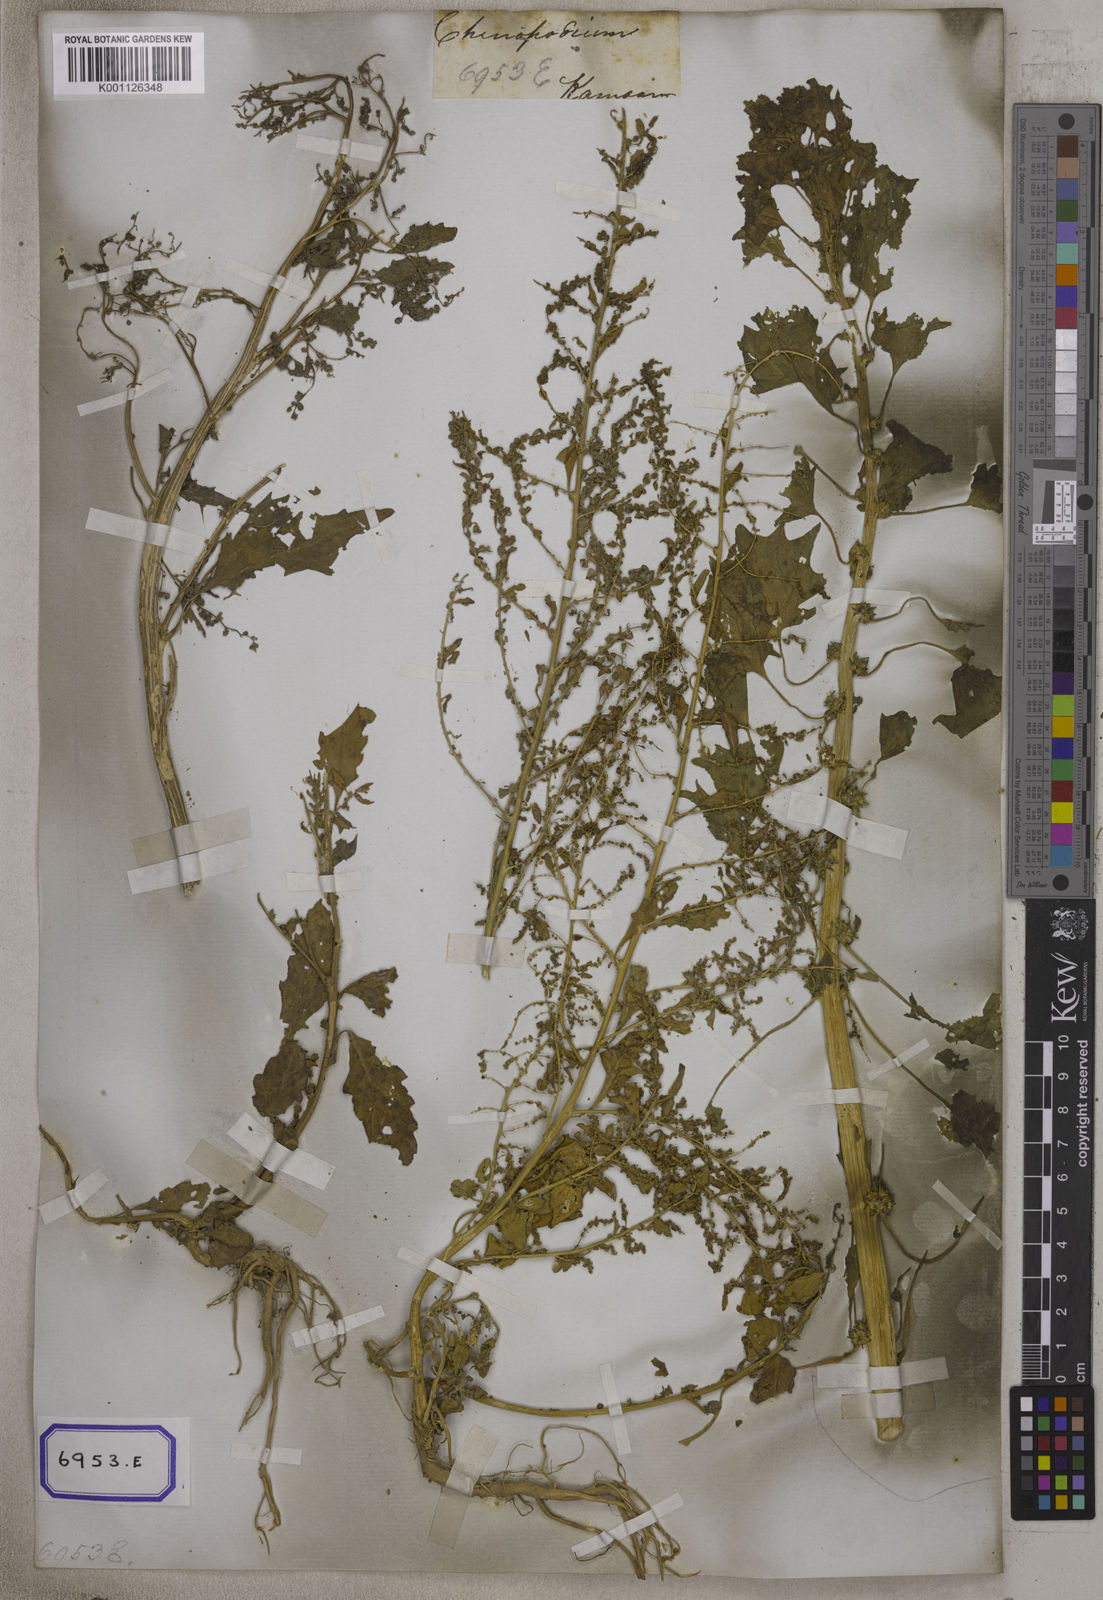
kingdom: Plantae
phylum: Tracheophyta
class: Magnoliopsida
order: Caryophyllales
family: Amaranthaceae
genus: Chenopodiastrum
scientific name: Chenopodiastrum murale
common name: Sowbane
